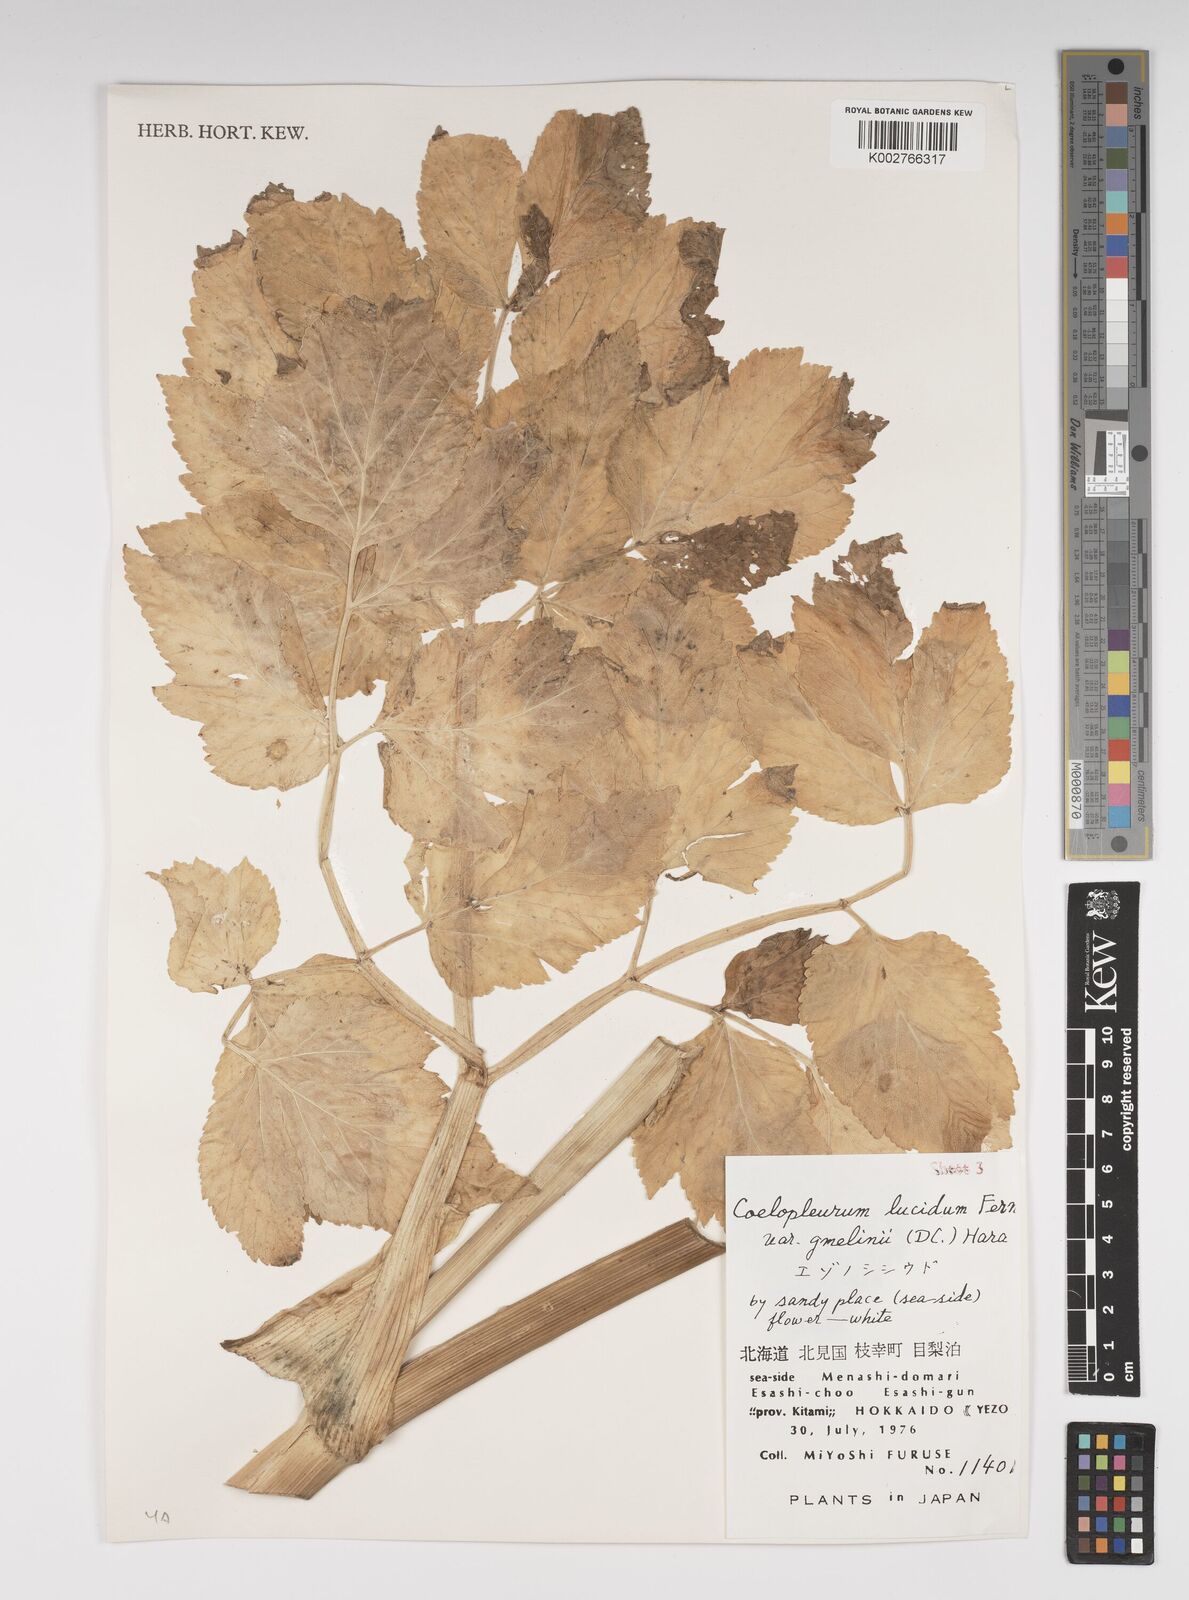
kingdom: Plantae
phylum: Tracheophyta
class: Magnoliopsida
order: Apiales
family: Apiaceae
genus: Angelica
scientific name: Angelica gmelinii
